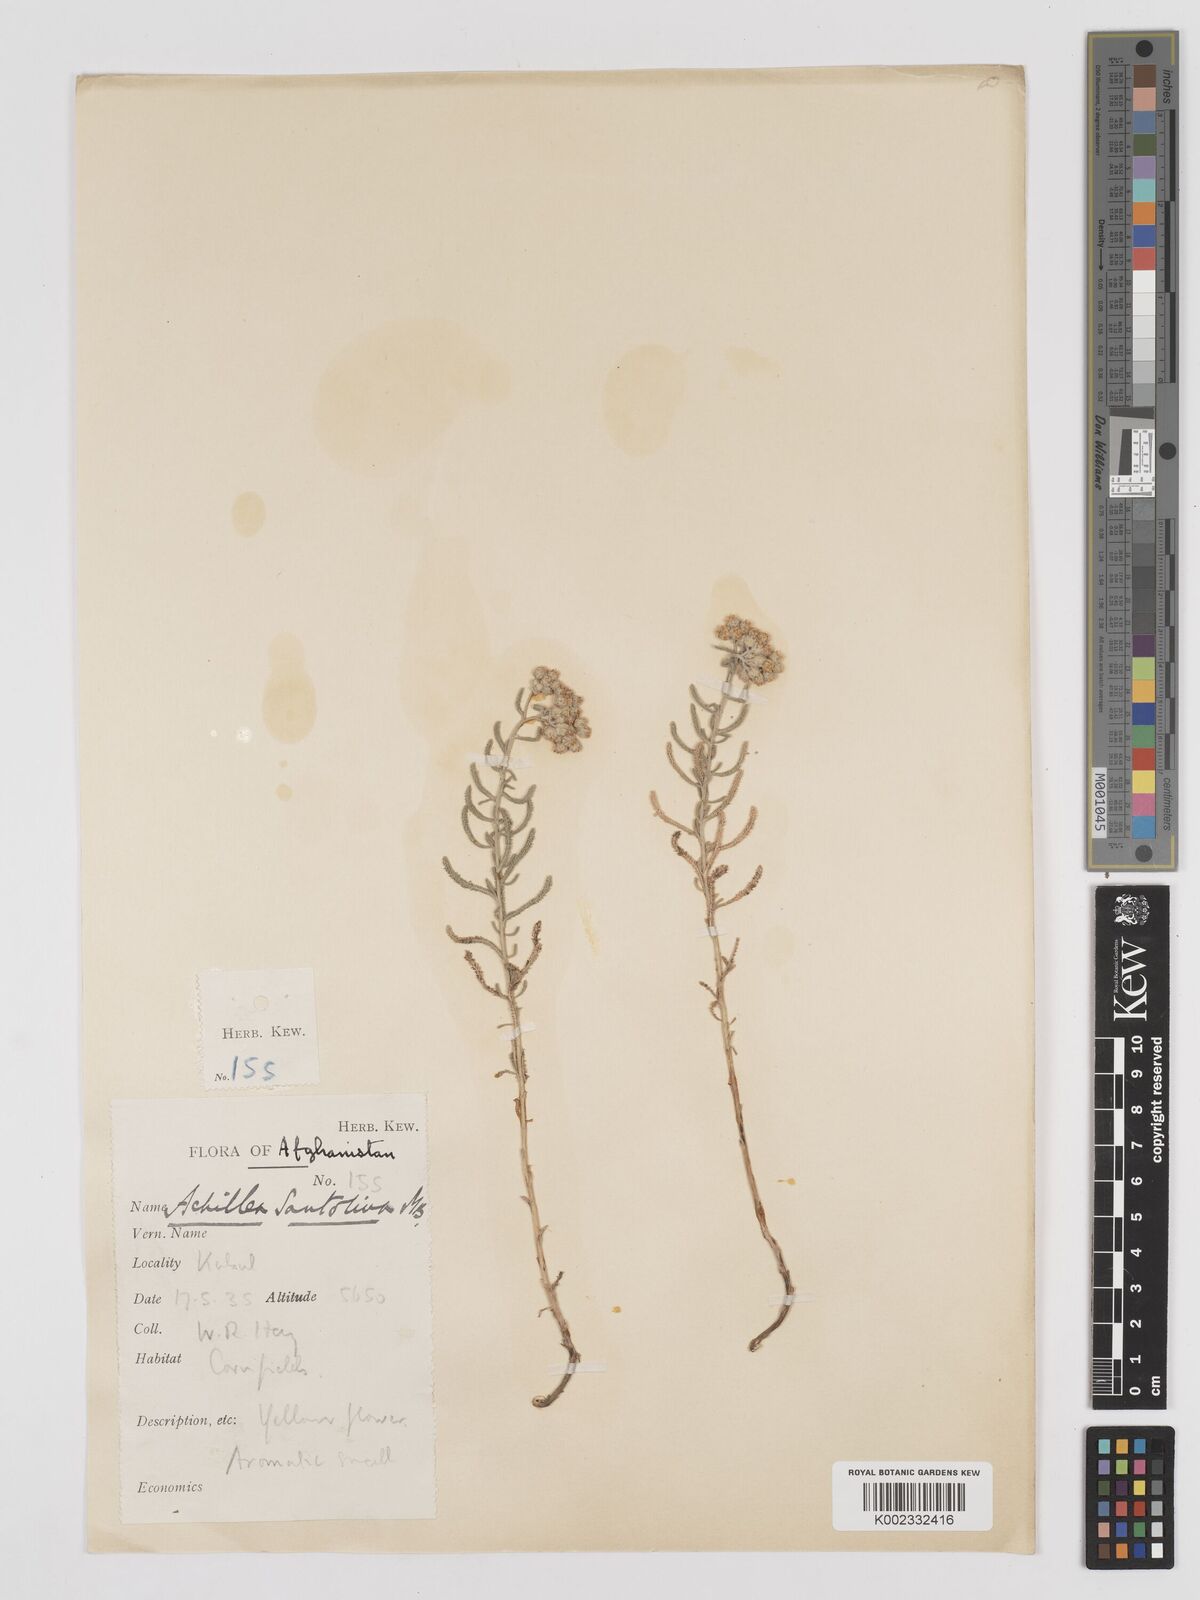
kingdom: Plantae
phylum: Tracheophyta
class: Magnoliopsida
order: Asterales
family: Asteraceae
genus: Achillea
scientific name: Achillea tenuifolia
